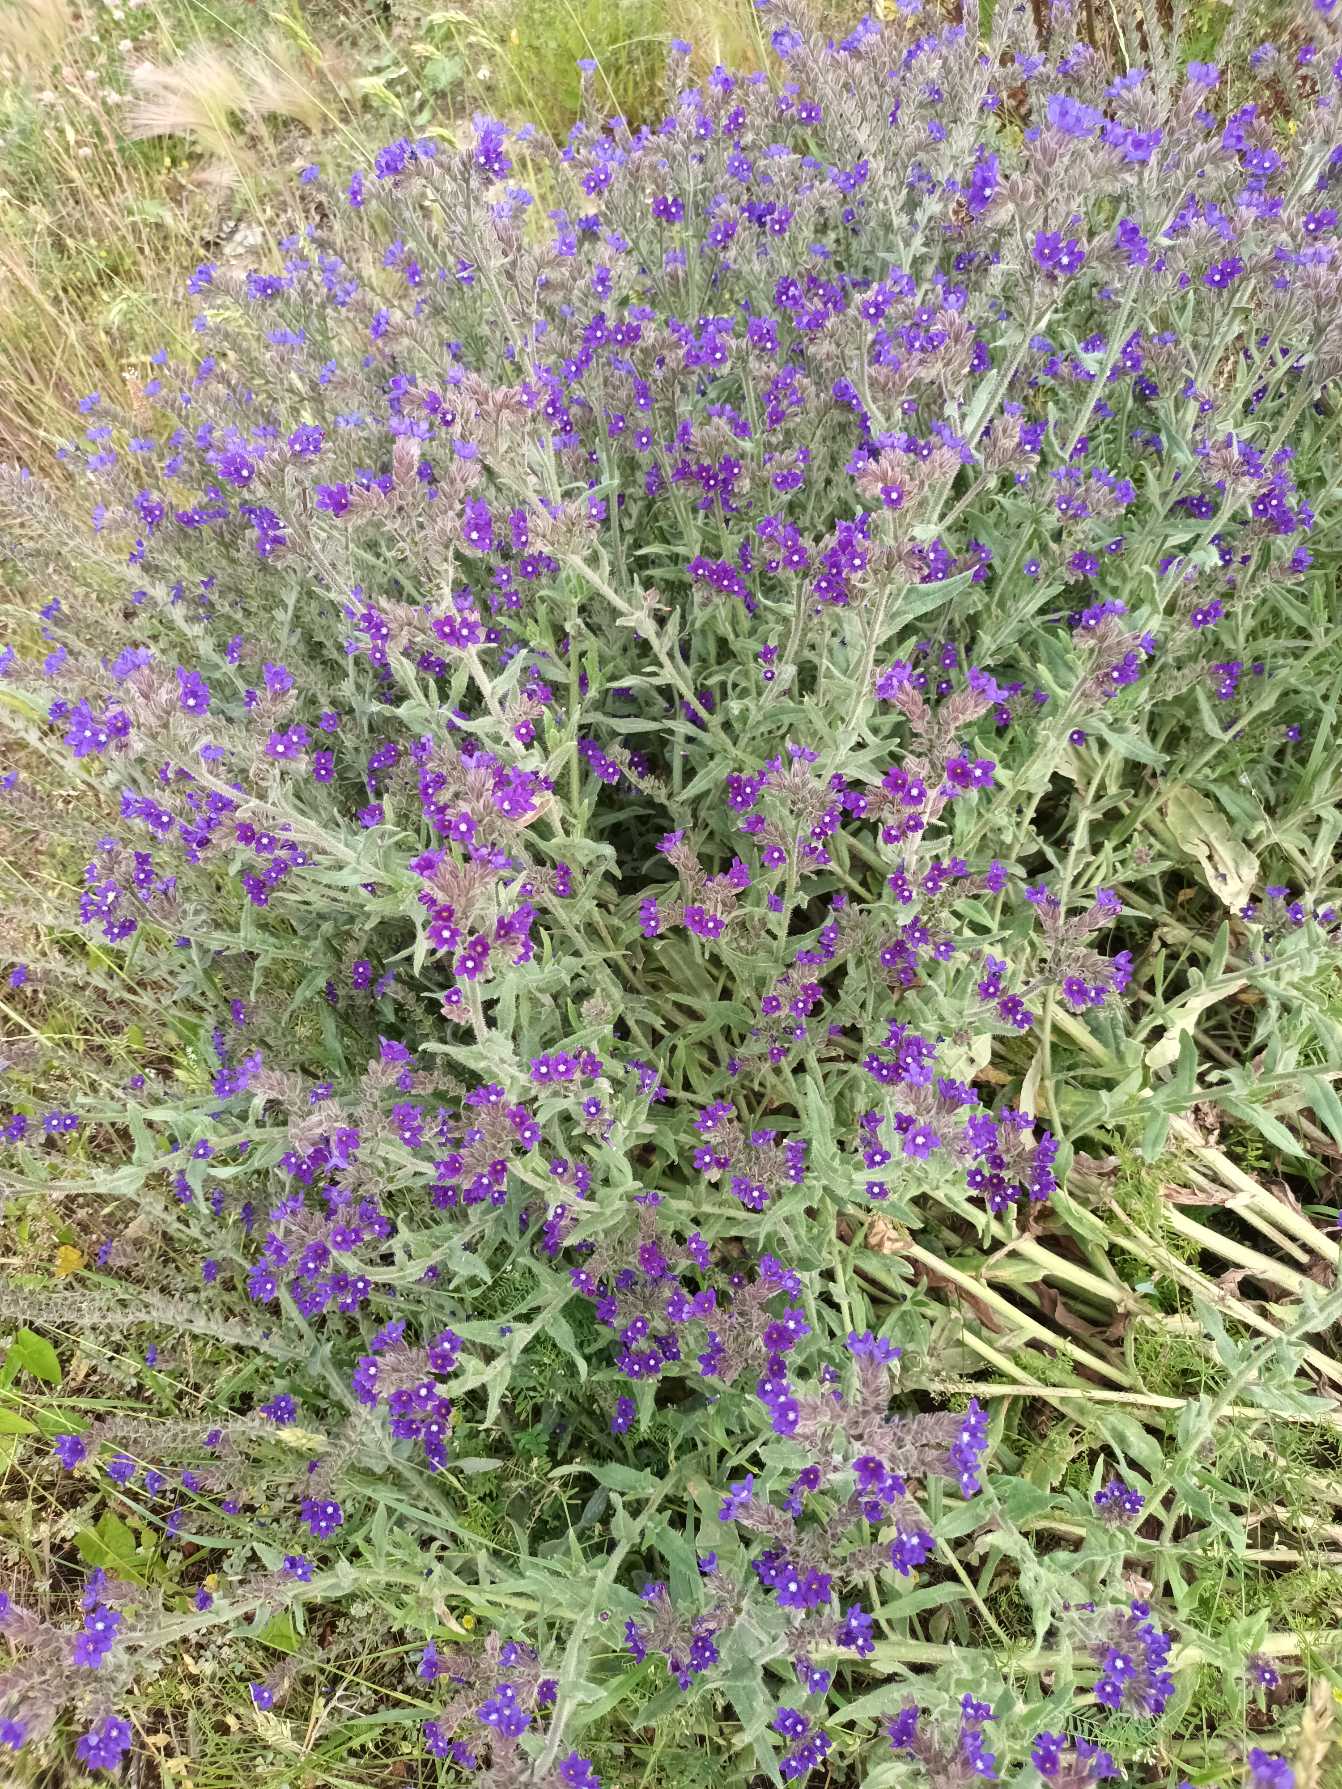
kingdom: Plantae
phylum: Tracheophyta
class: Magnoliopsida
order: Boraginales
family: Boraginaceae
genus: Anchusa
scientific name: Anchusa officinalis
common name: Læge-oksetunge
